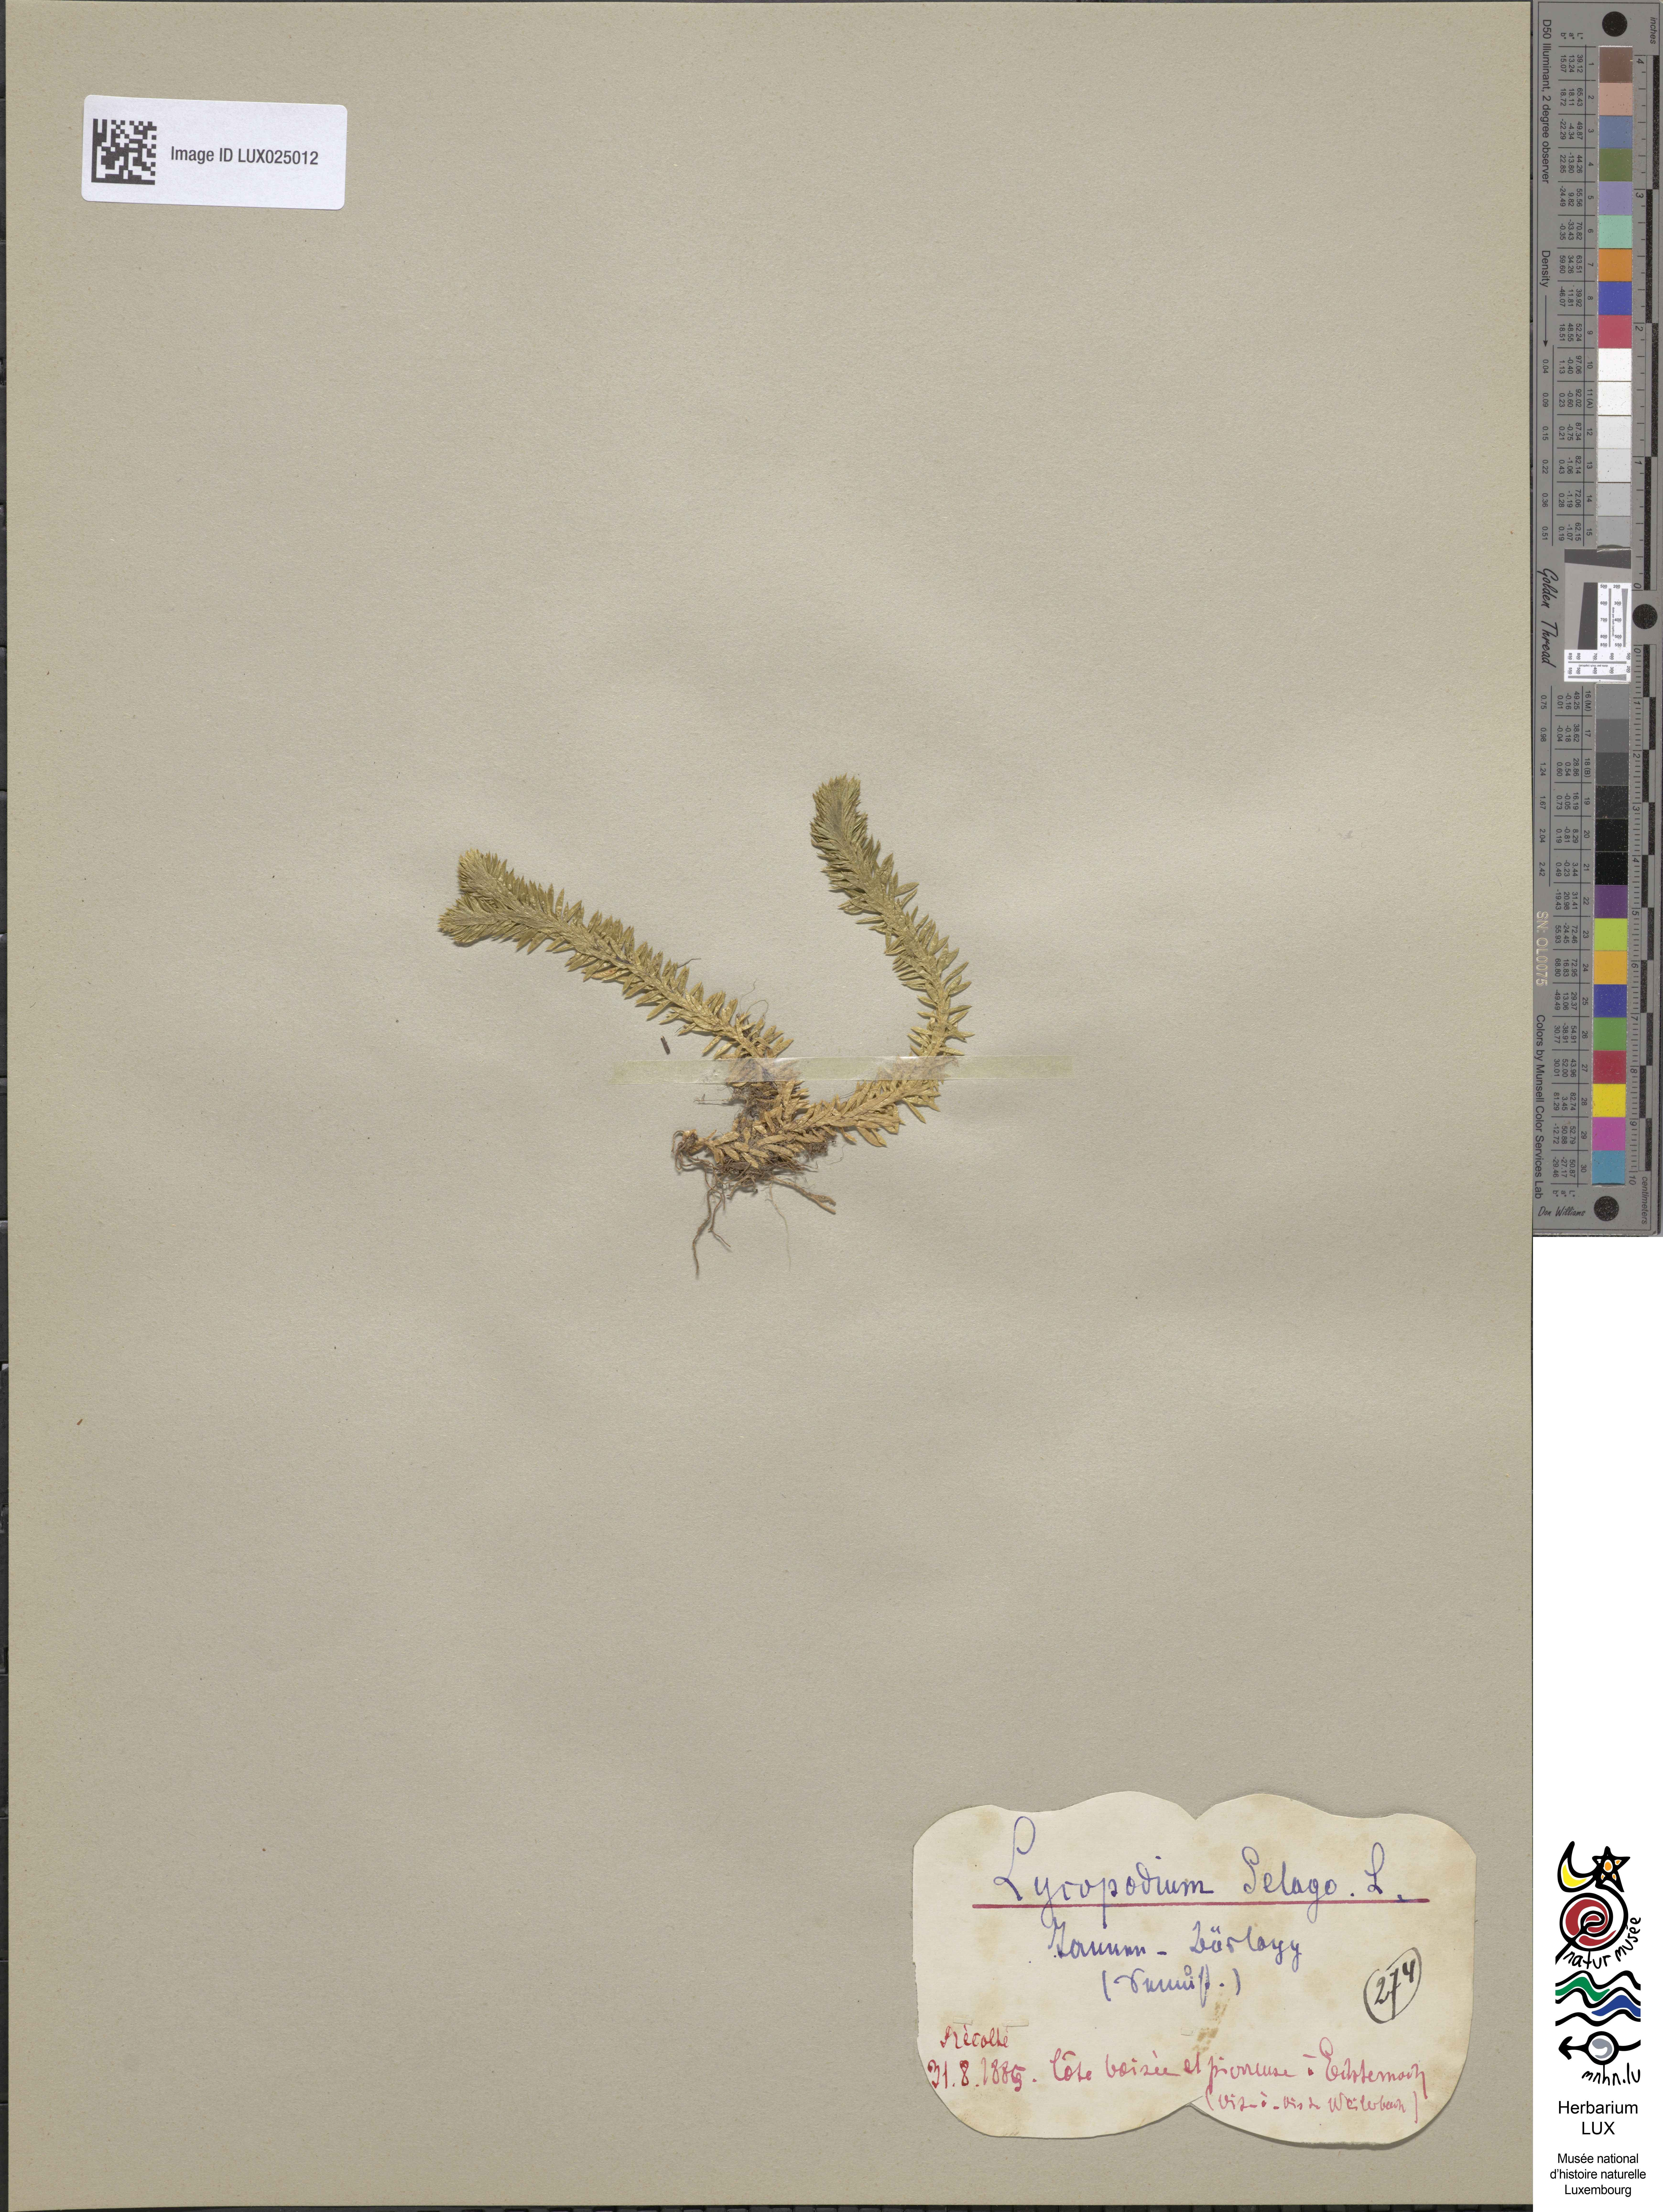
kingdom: Plantae
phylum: Tracheophyta
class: Lycopodiopsida
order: Lycopodiales
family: Lycopodiaceae
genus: Huperzia
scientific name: Huperzia selago
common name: Northern firmoss
